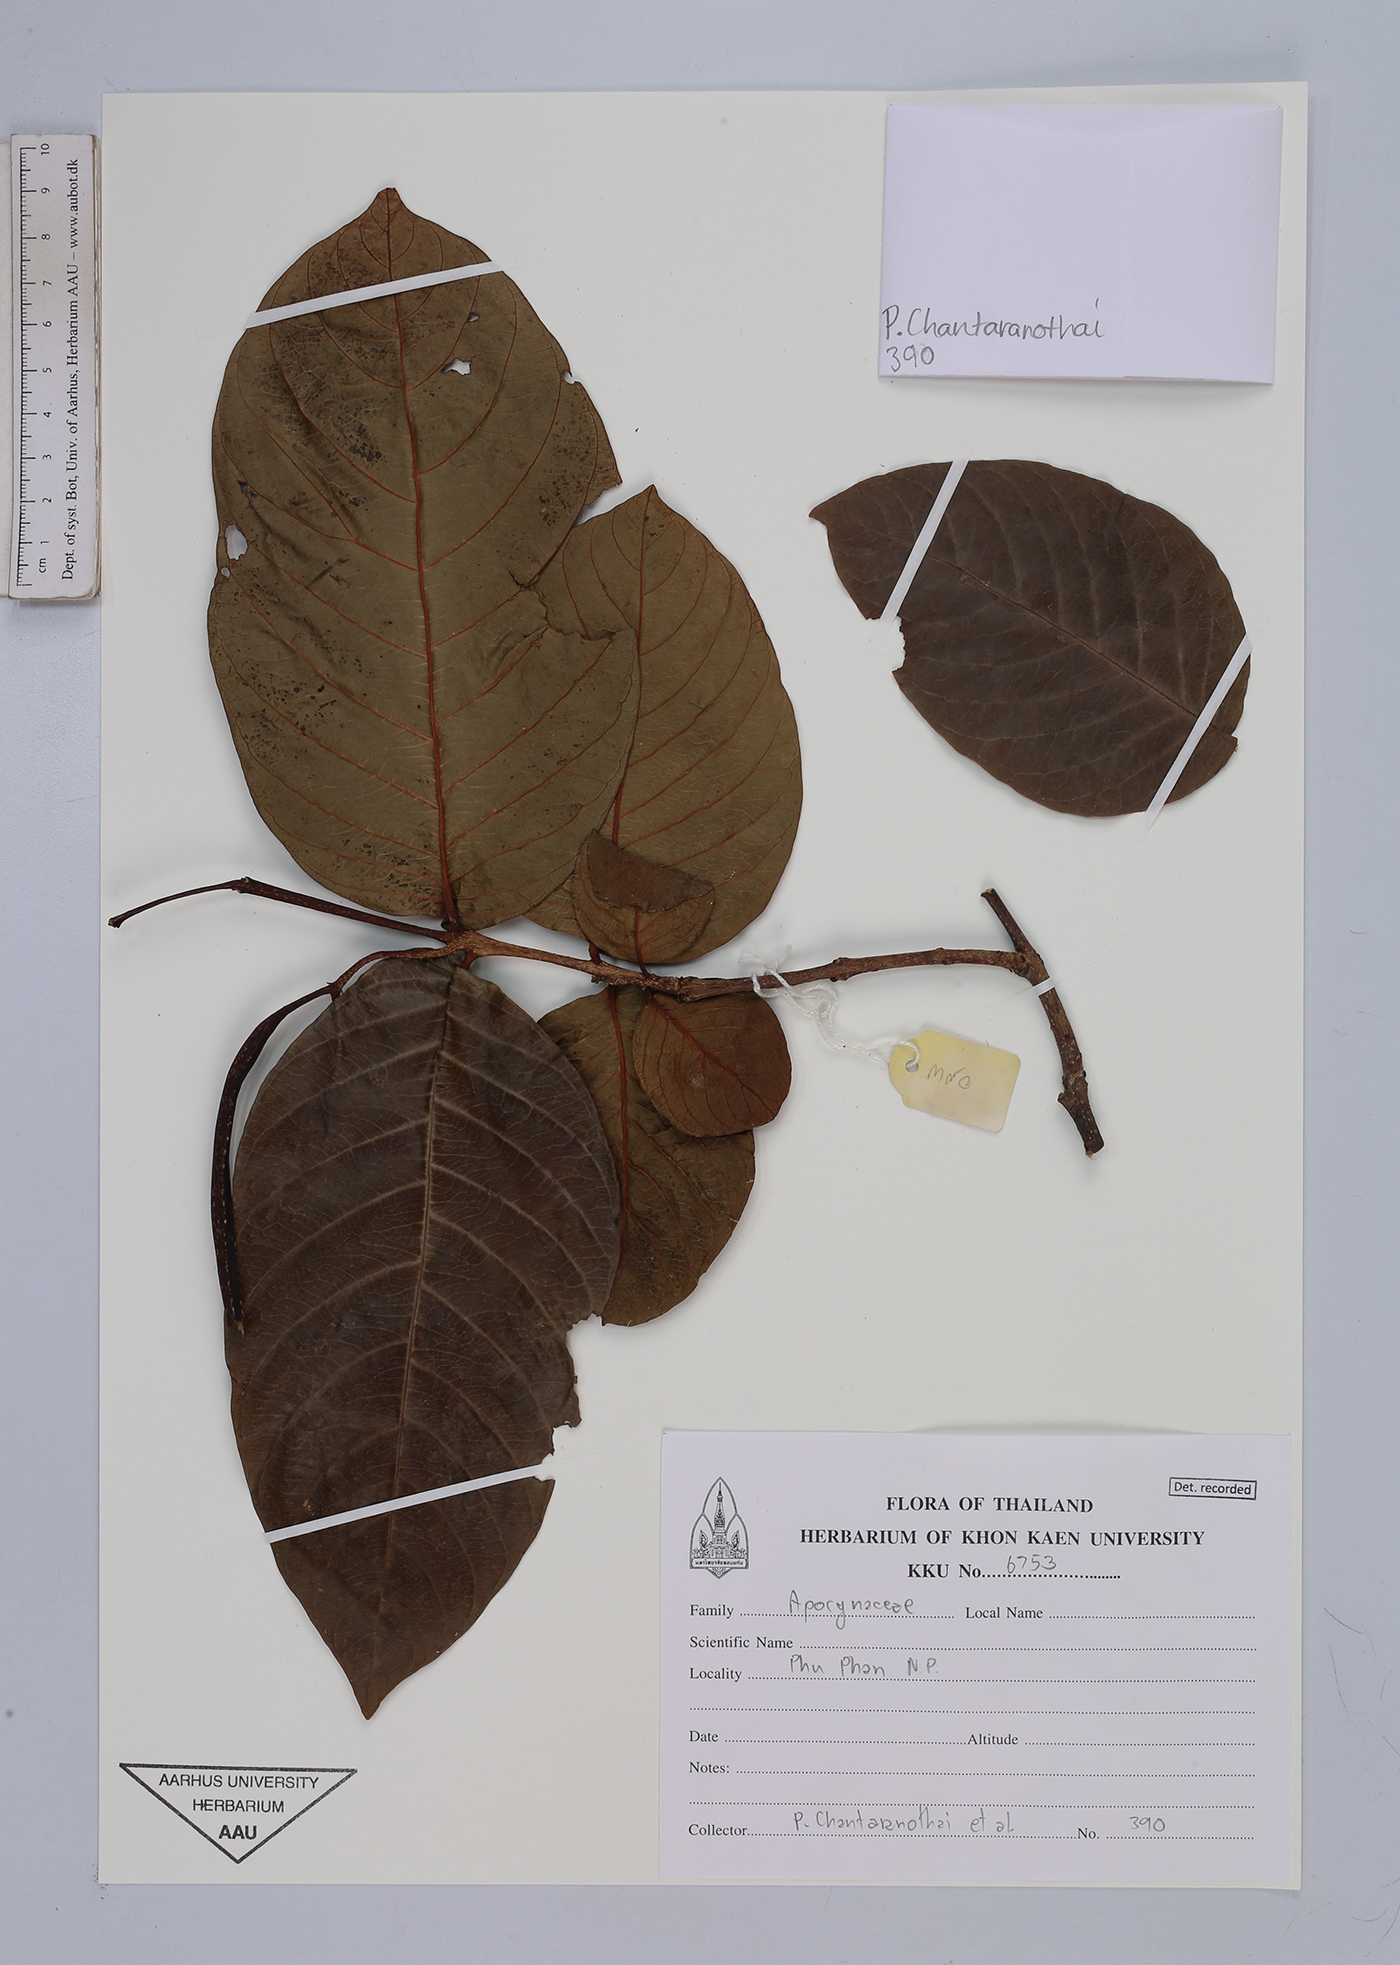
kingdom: Plantae
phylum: Tracheophyta
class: Magnoliopsida
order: Gentianales
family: Apocynaceae
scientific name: Apocynaceae
